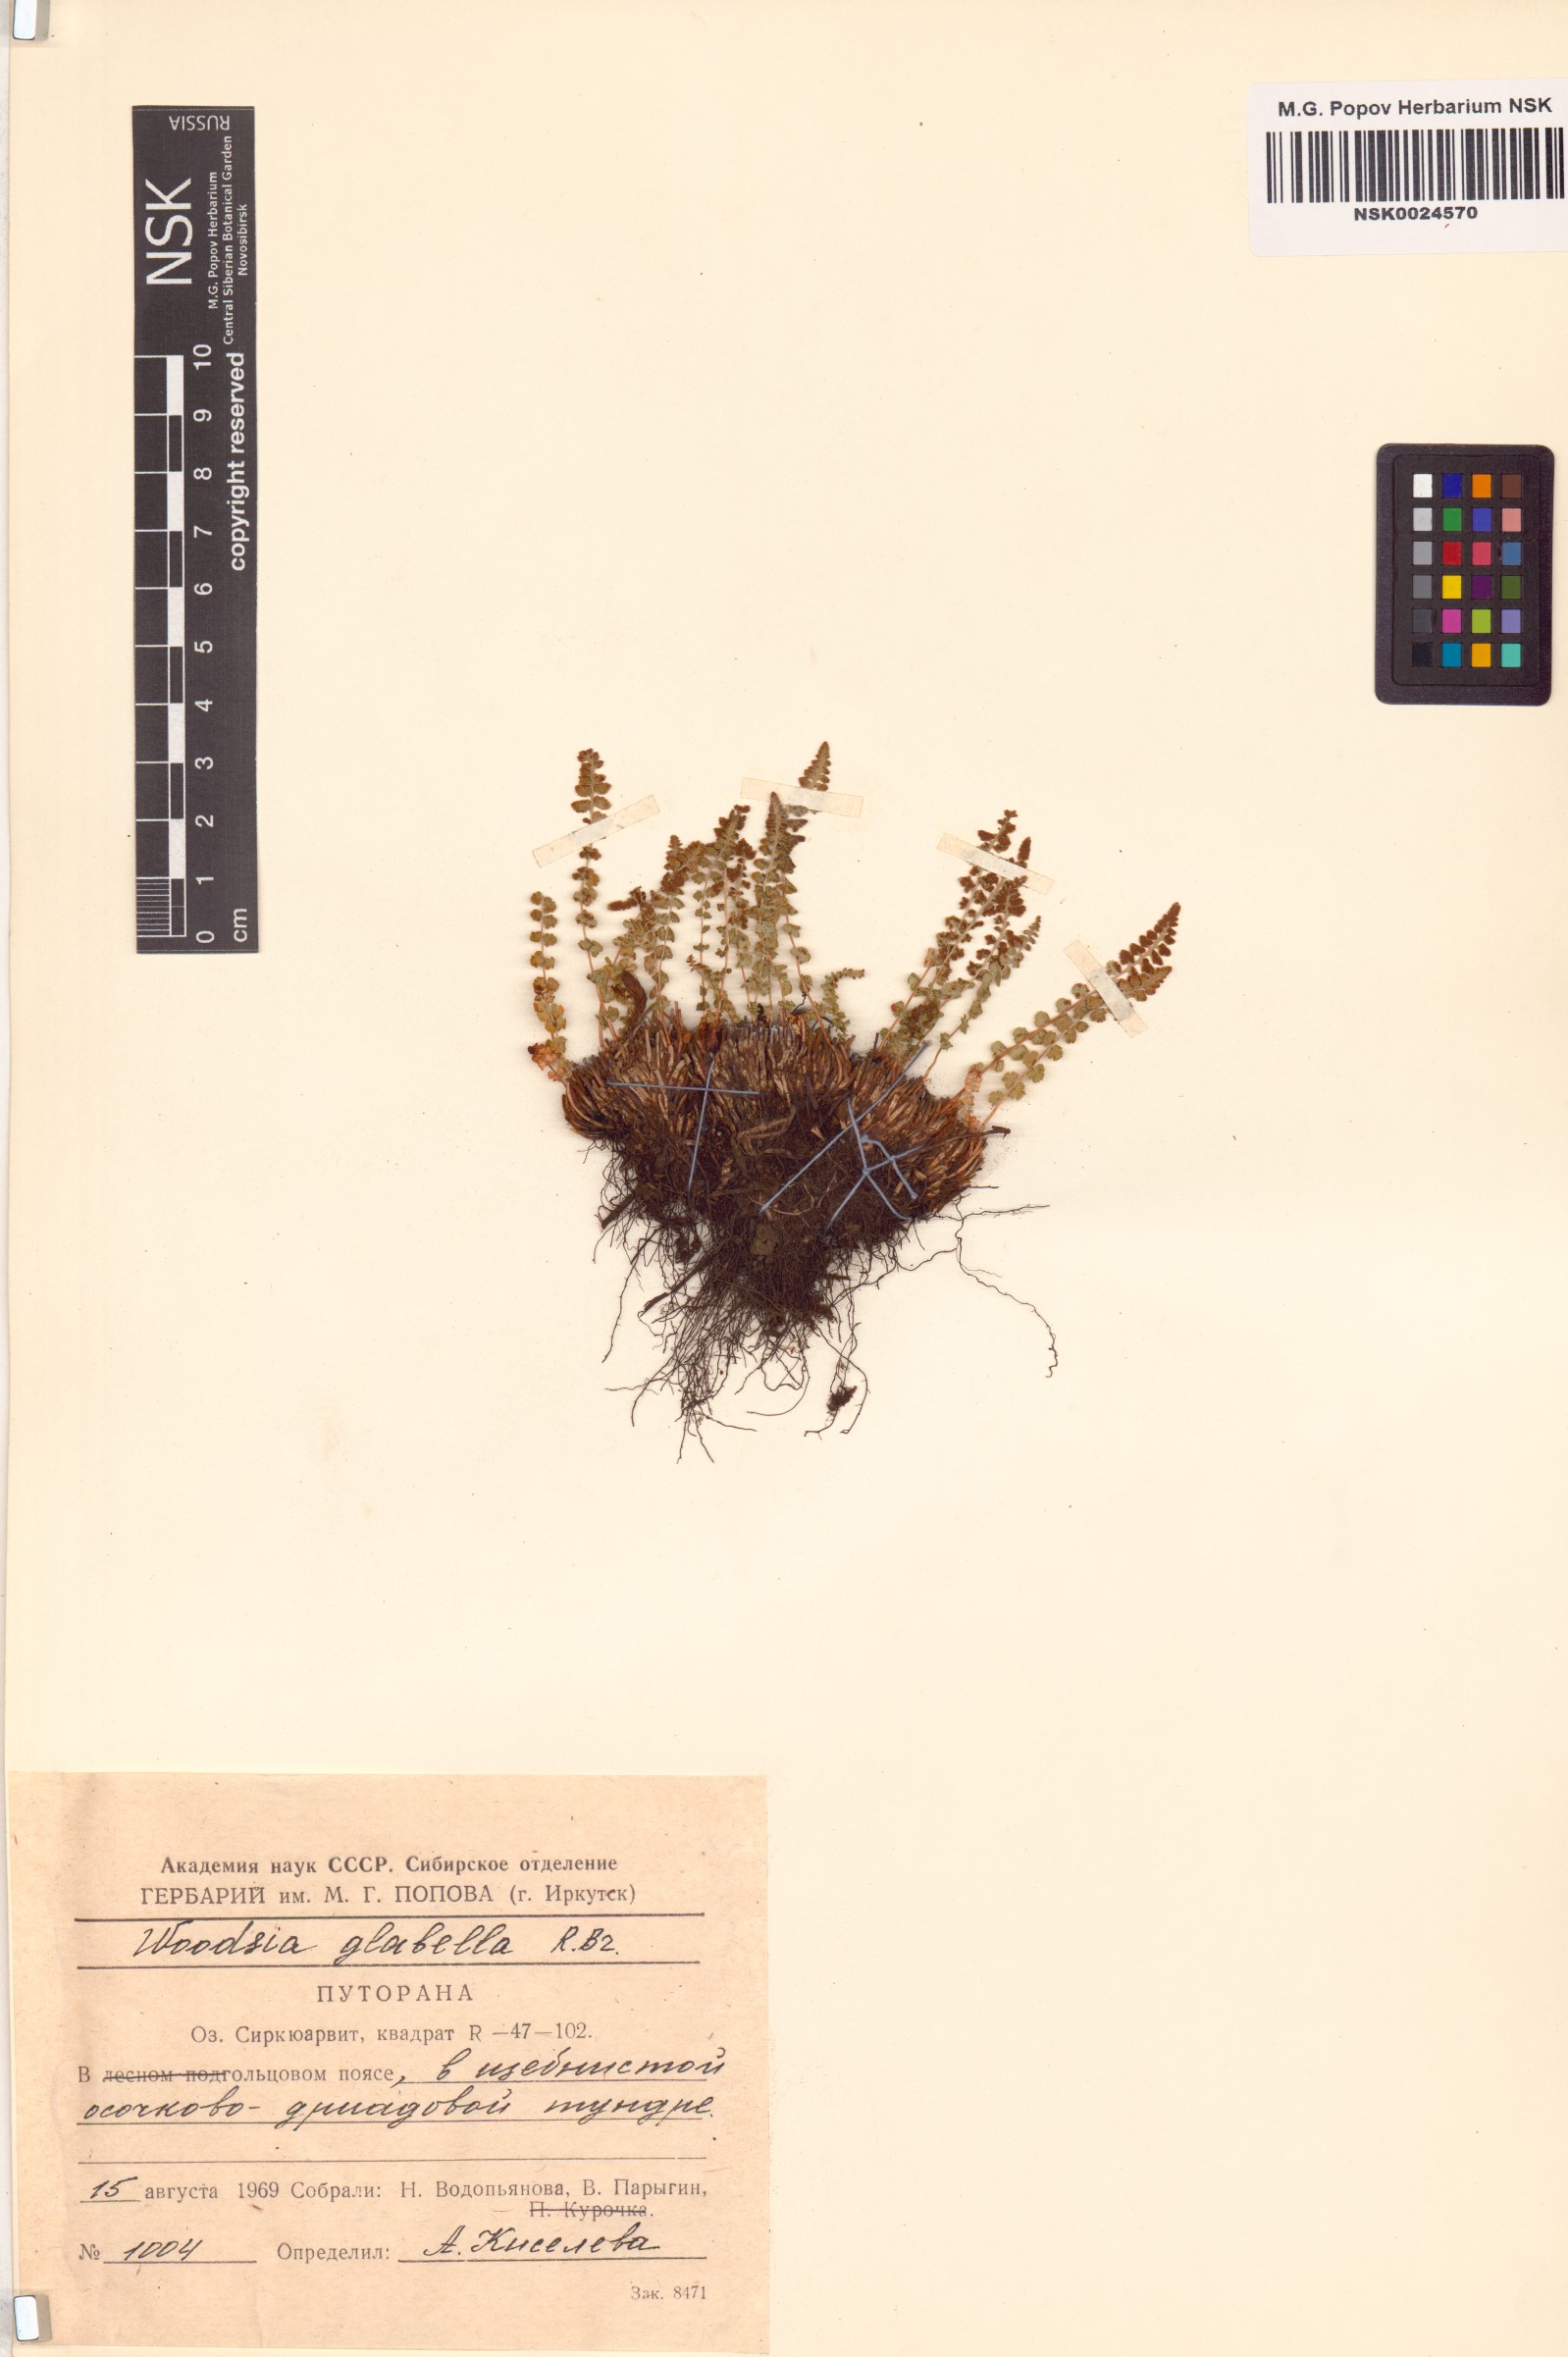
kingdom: Plantae
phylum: Tracheophyta
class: Polypodiopsida
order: Polypodiales
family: Woodsiaceae
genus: Woodsia
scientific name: Woodsia glabella
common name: Smooth woodsia
